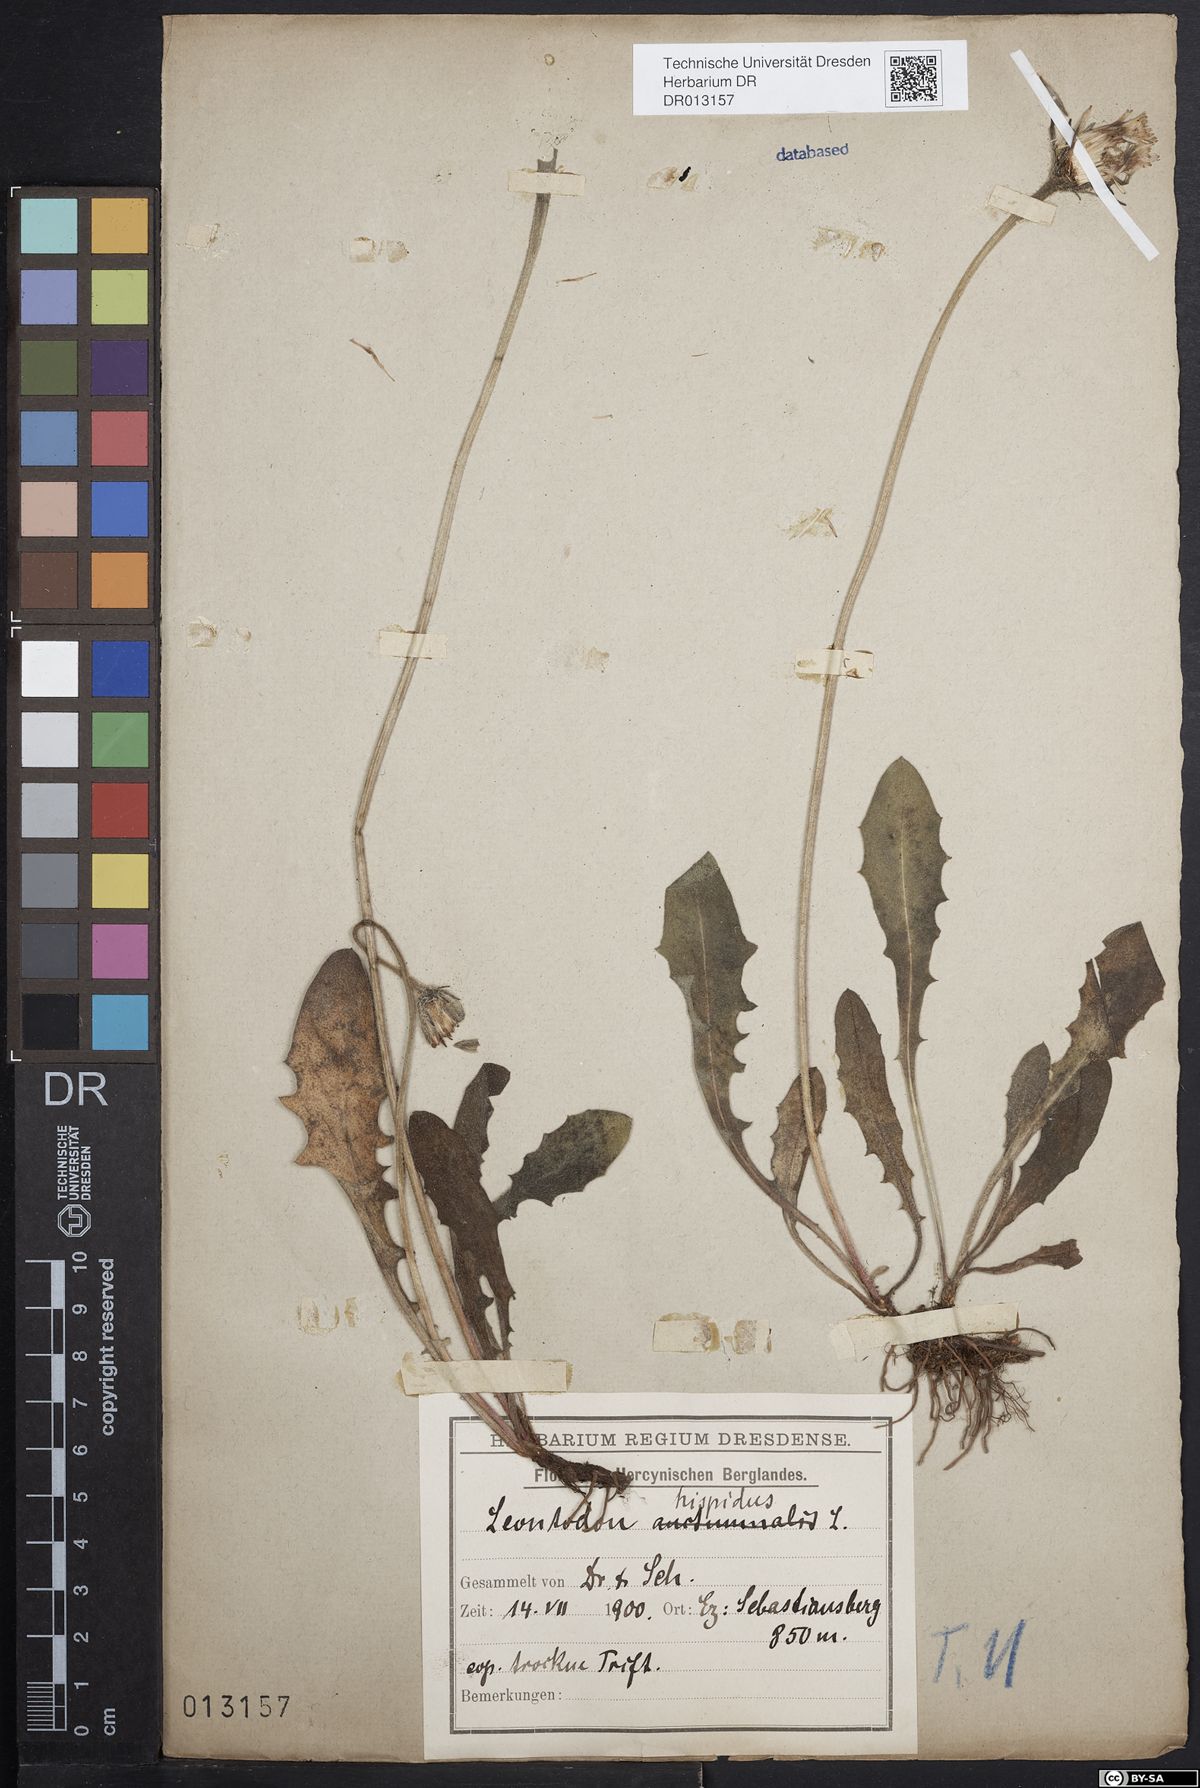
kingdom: Plantae
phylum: Tracheophyta
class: Magnoliopsida
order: Asterales
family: Asteraceae
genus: Leontodon
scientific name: Leontodon hispidus
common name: Rough hawkbit
